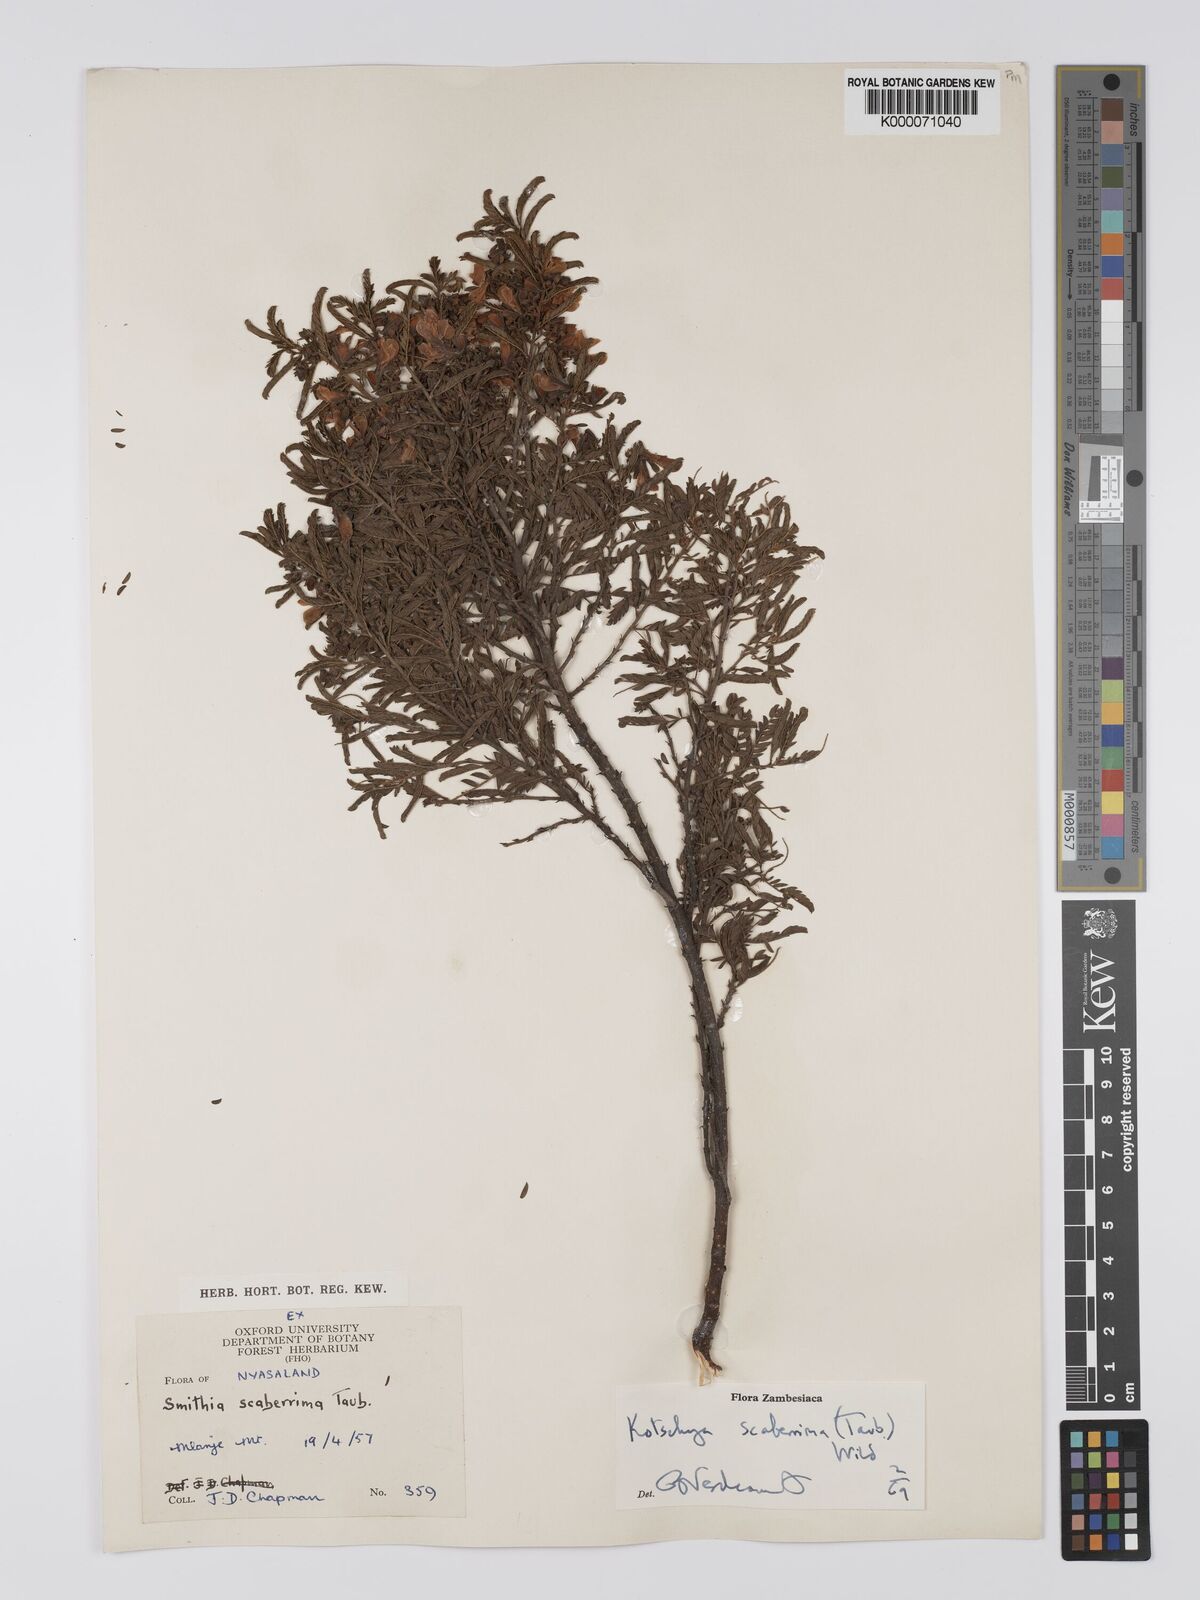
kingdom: Plantae
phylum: Tracheophyta
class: Magnoliopsida
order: Fabales
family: Fabaceae
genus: Kotschya
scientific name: Kotschya scaberrima
